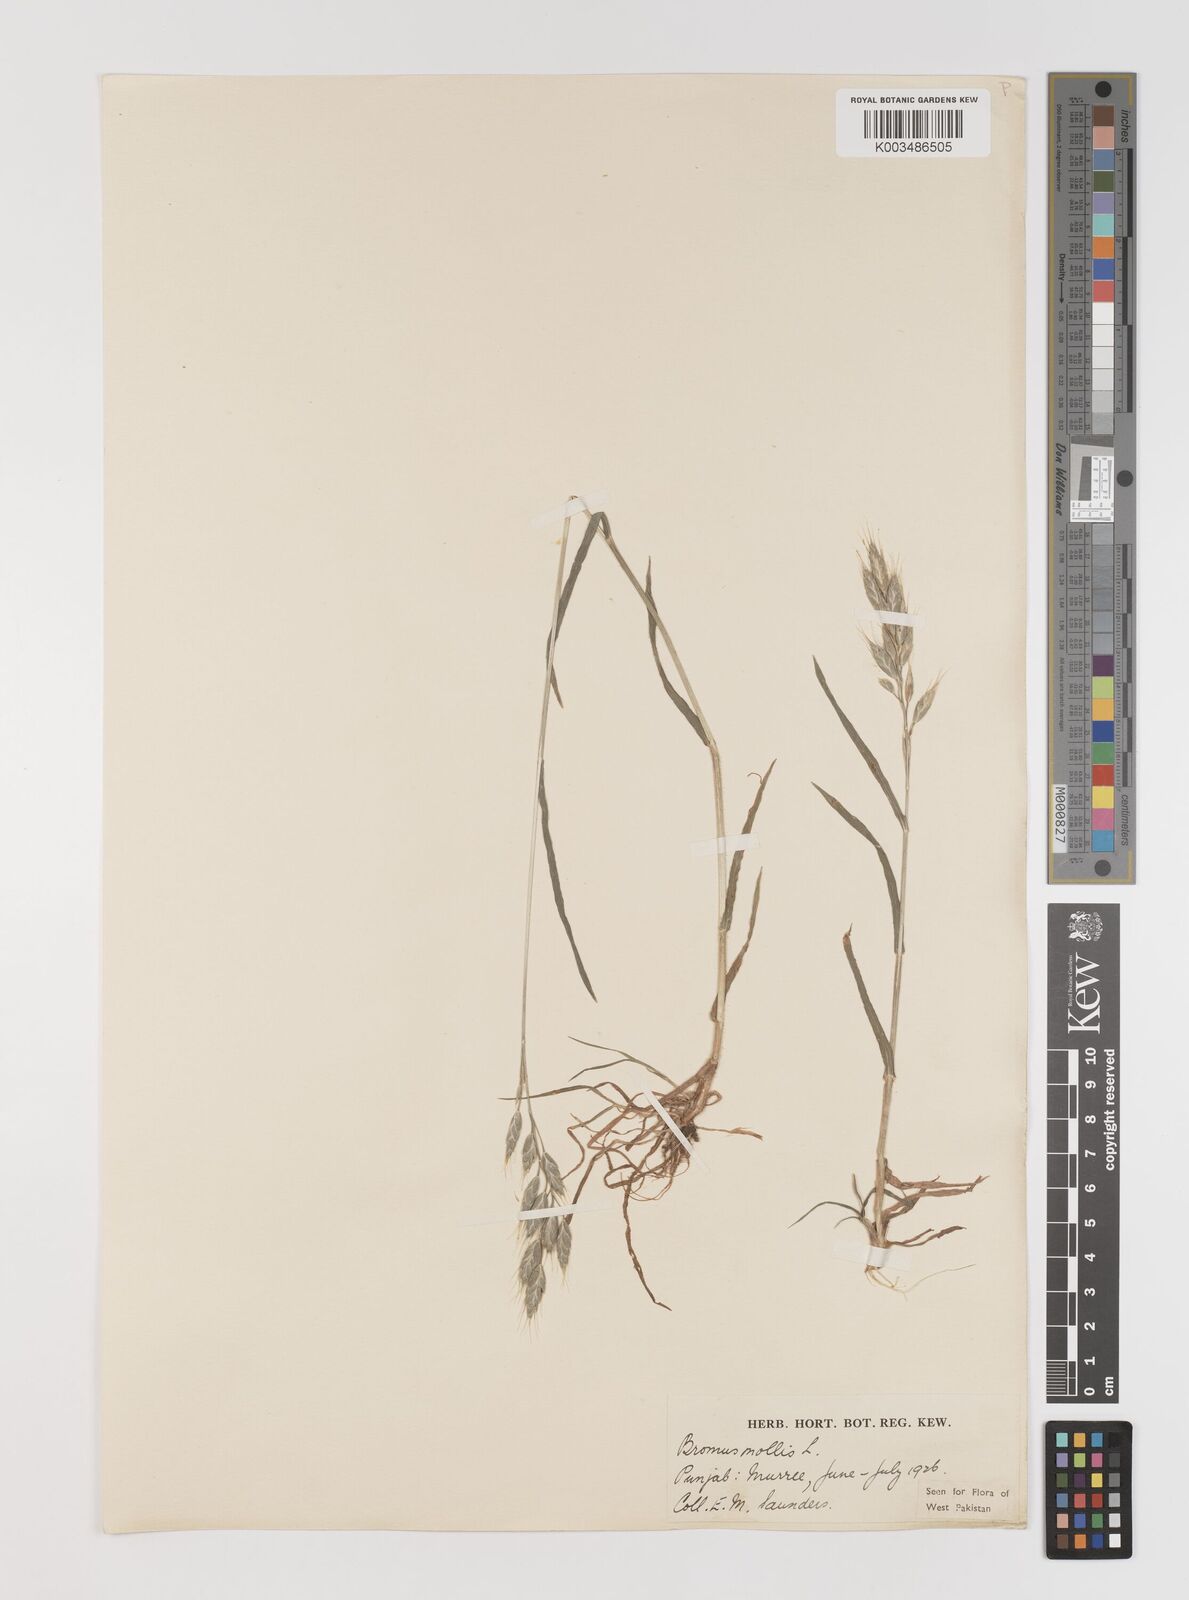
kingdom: Plantae
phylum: Tracheophyta
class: Liliopsida
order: Poales
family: Poaceae
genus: Bromus
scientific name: Bromus hordeaceus
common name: Soft brome
